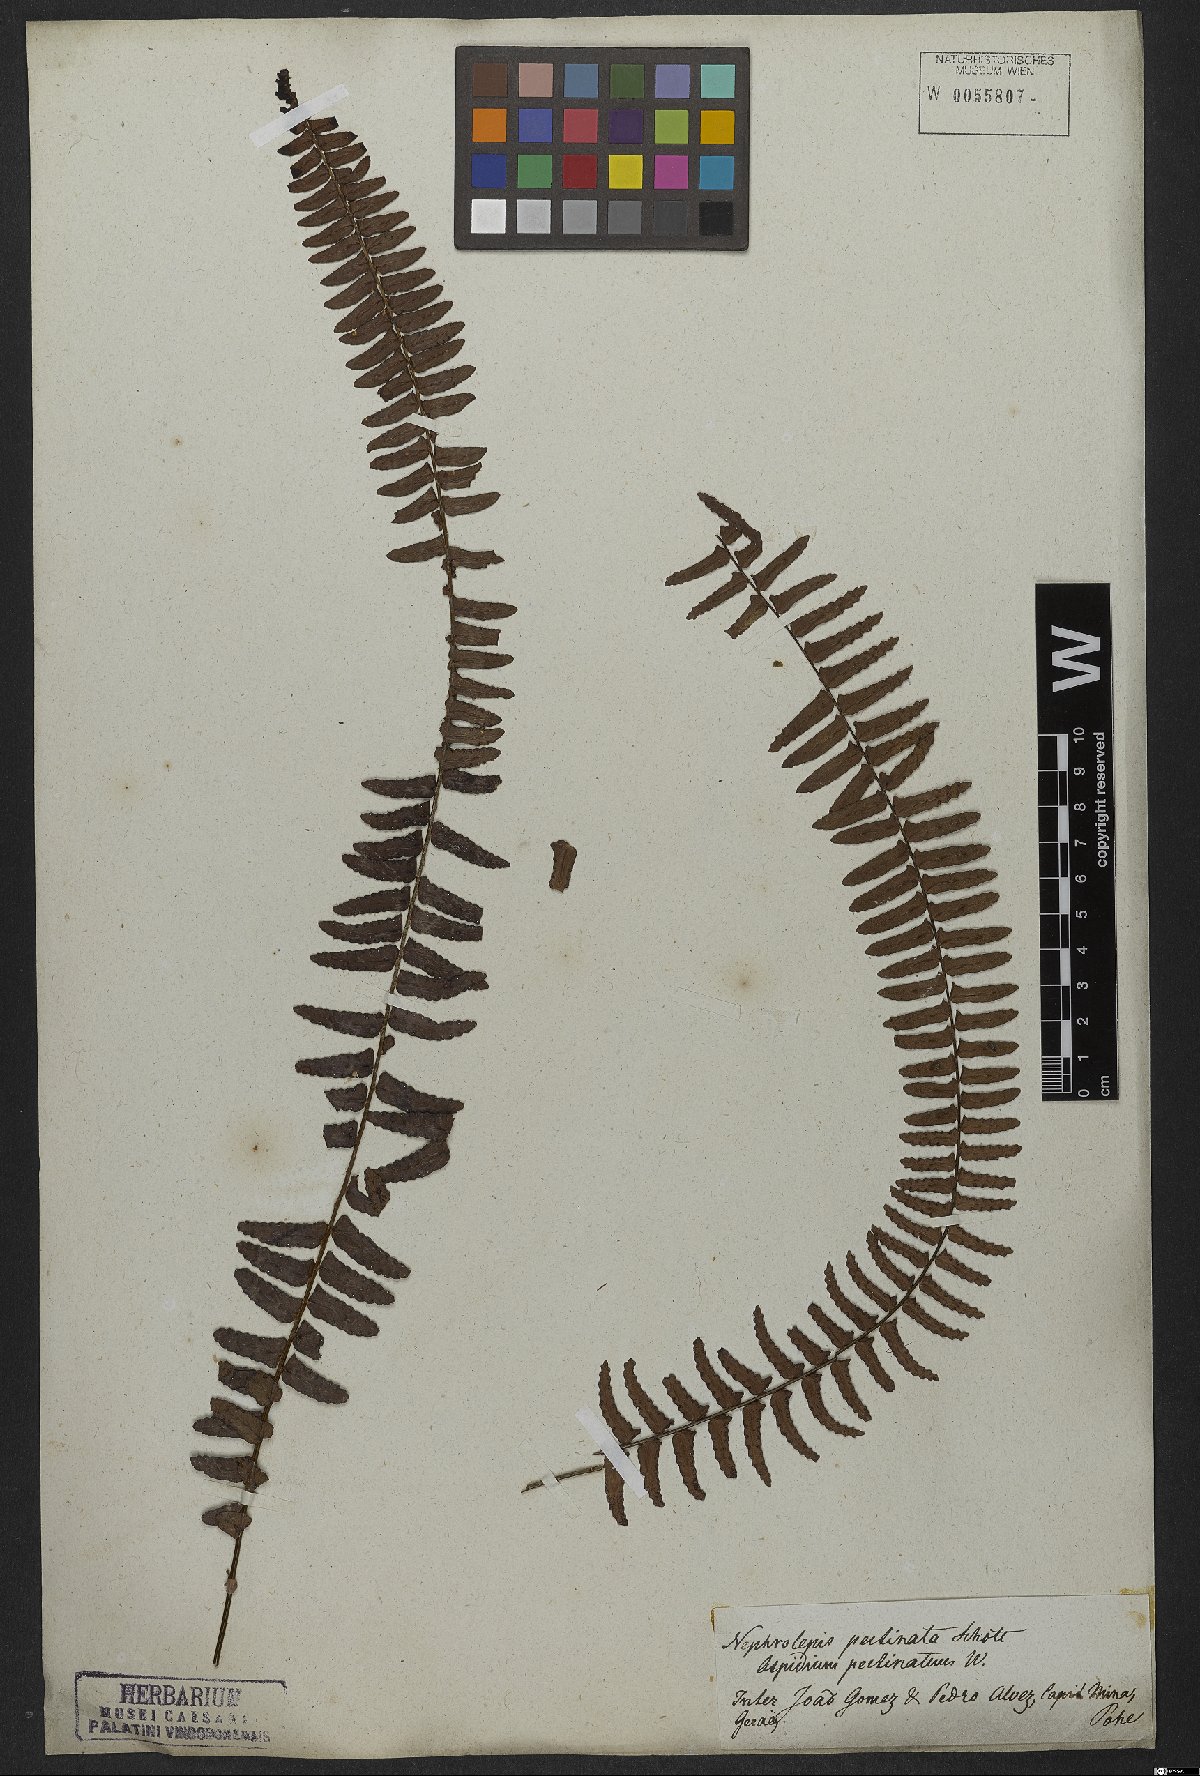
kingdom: Plantae
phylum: Tracheophyta
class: Polypodiopsida
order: Polypodiales
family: Nephrolepidaceae
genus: Nephrolepis
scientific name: Nephrolepis pectinata
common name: Basket fern
